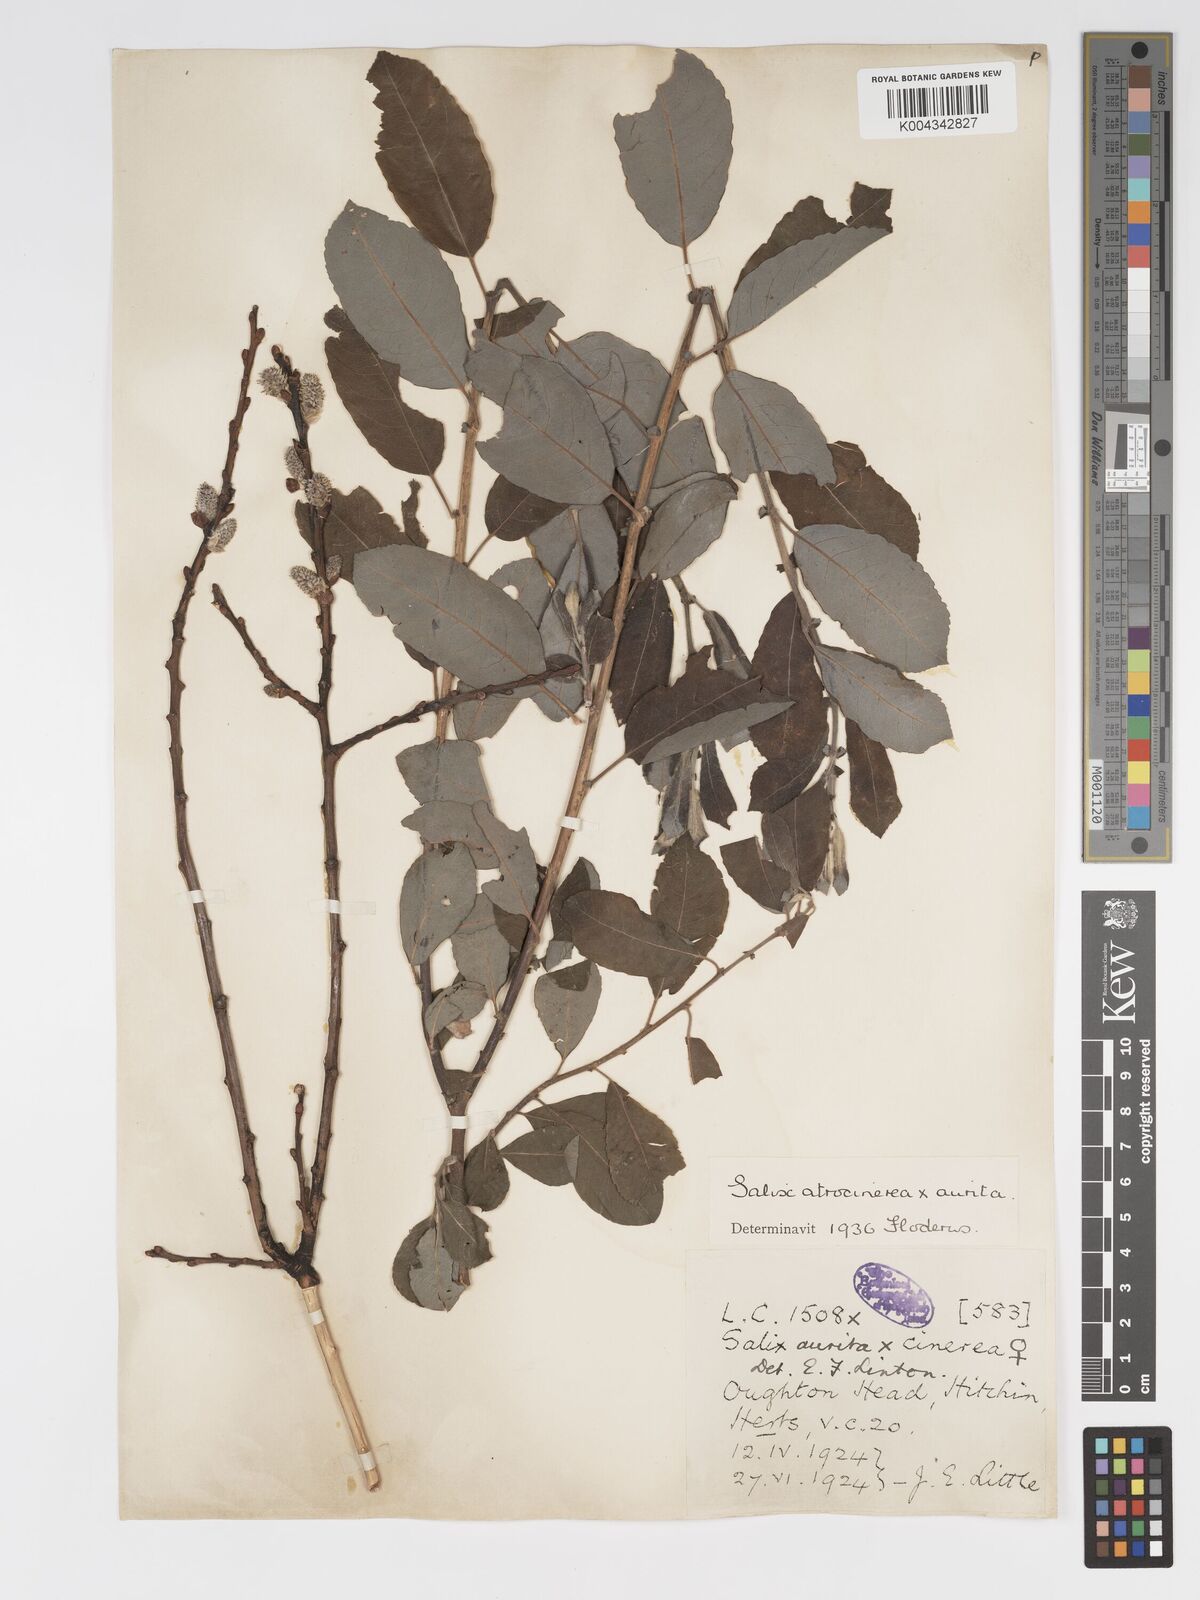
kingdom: Plantae
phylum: Tracheophyta
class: Magnoliopsida
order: Malpighiales
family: Salicaceae
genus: Salix
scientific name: Salix atrocinerea
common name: Rusty willow
